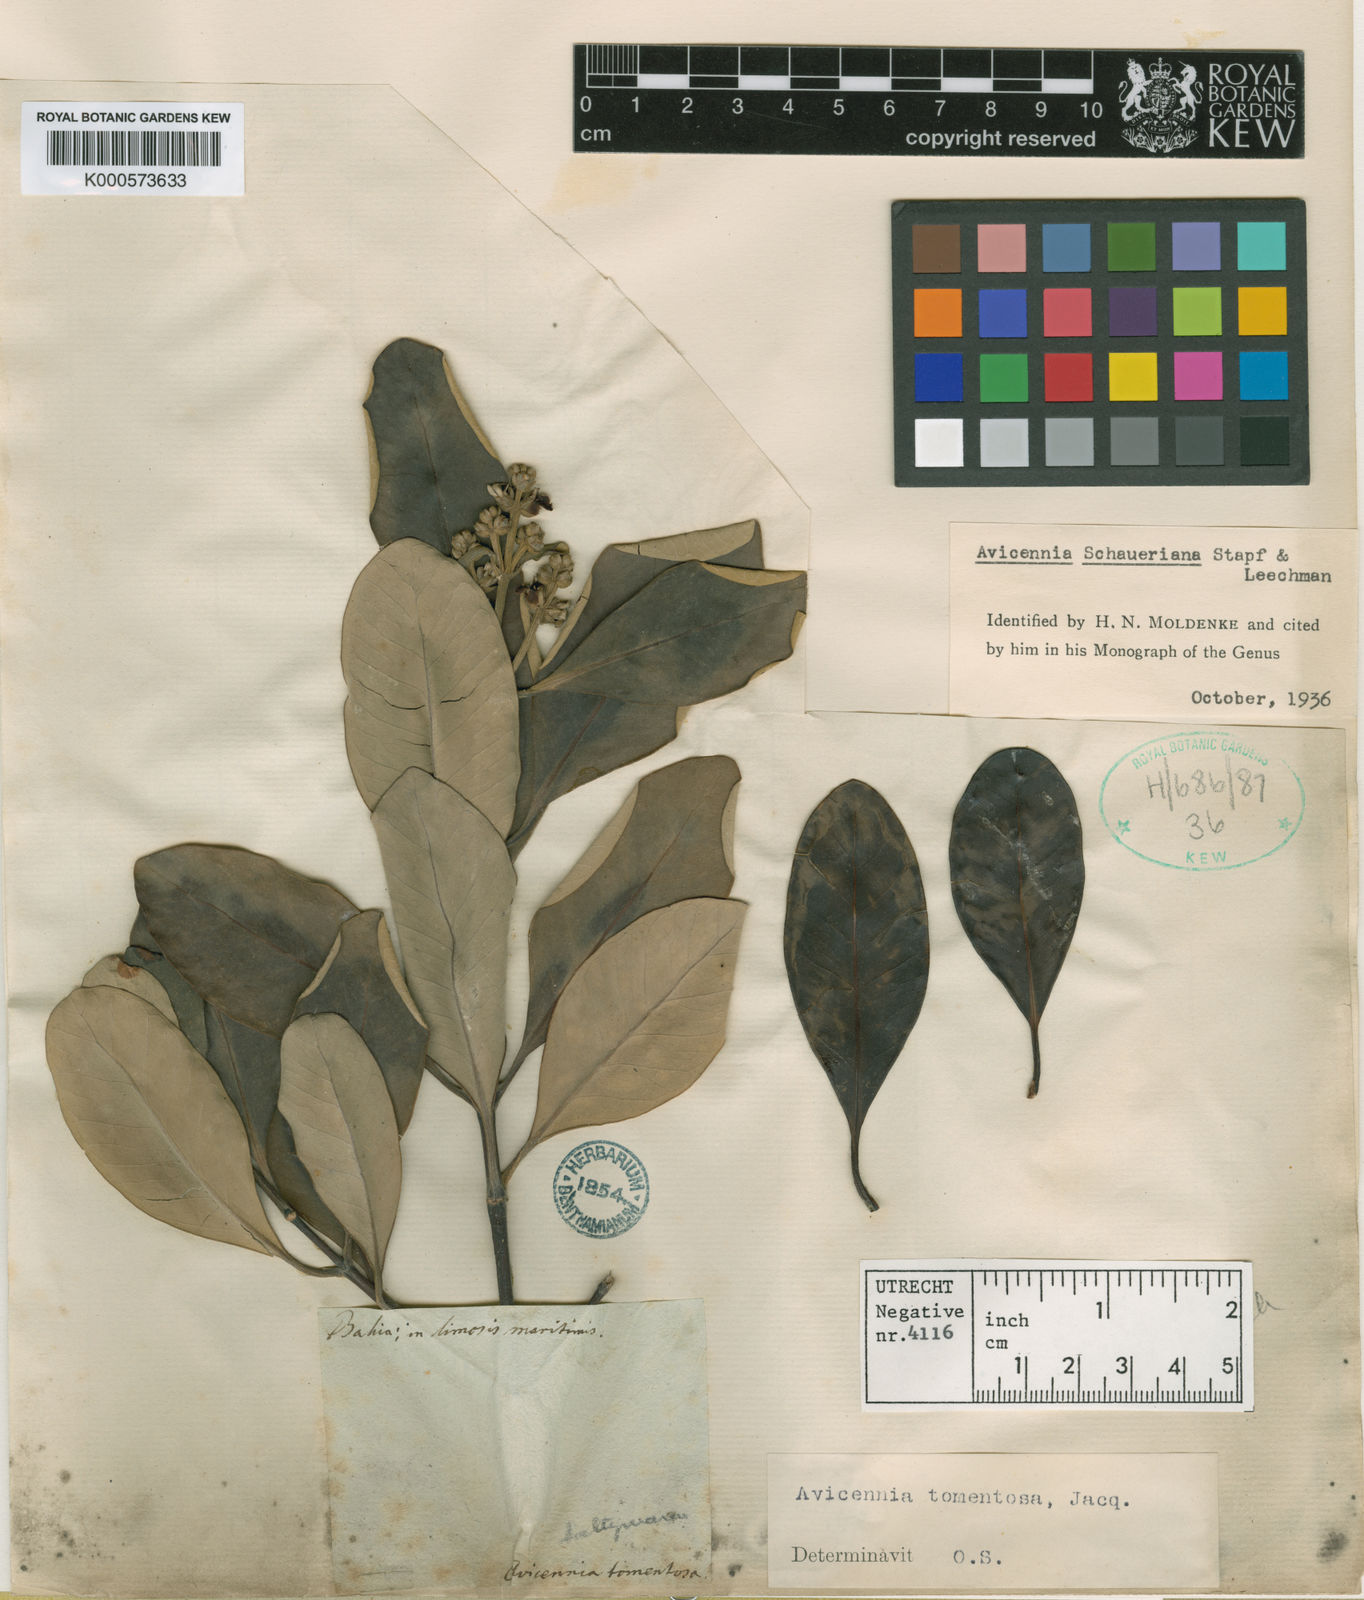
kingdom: Plantae
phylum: Tracheophyta
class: Magnoliopsida
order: Lamiales
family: Acanthaceae
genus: Avicennia
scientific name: Avicennia schaueriana
